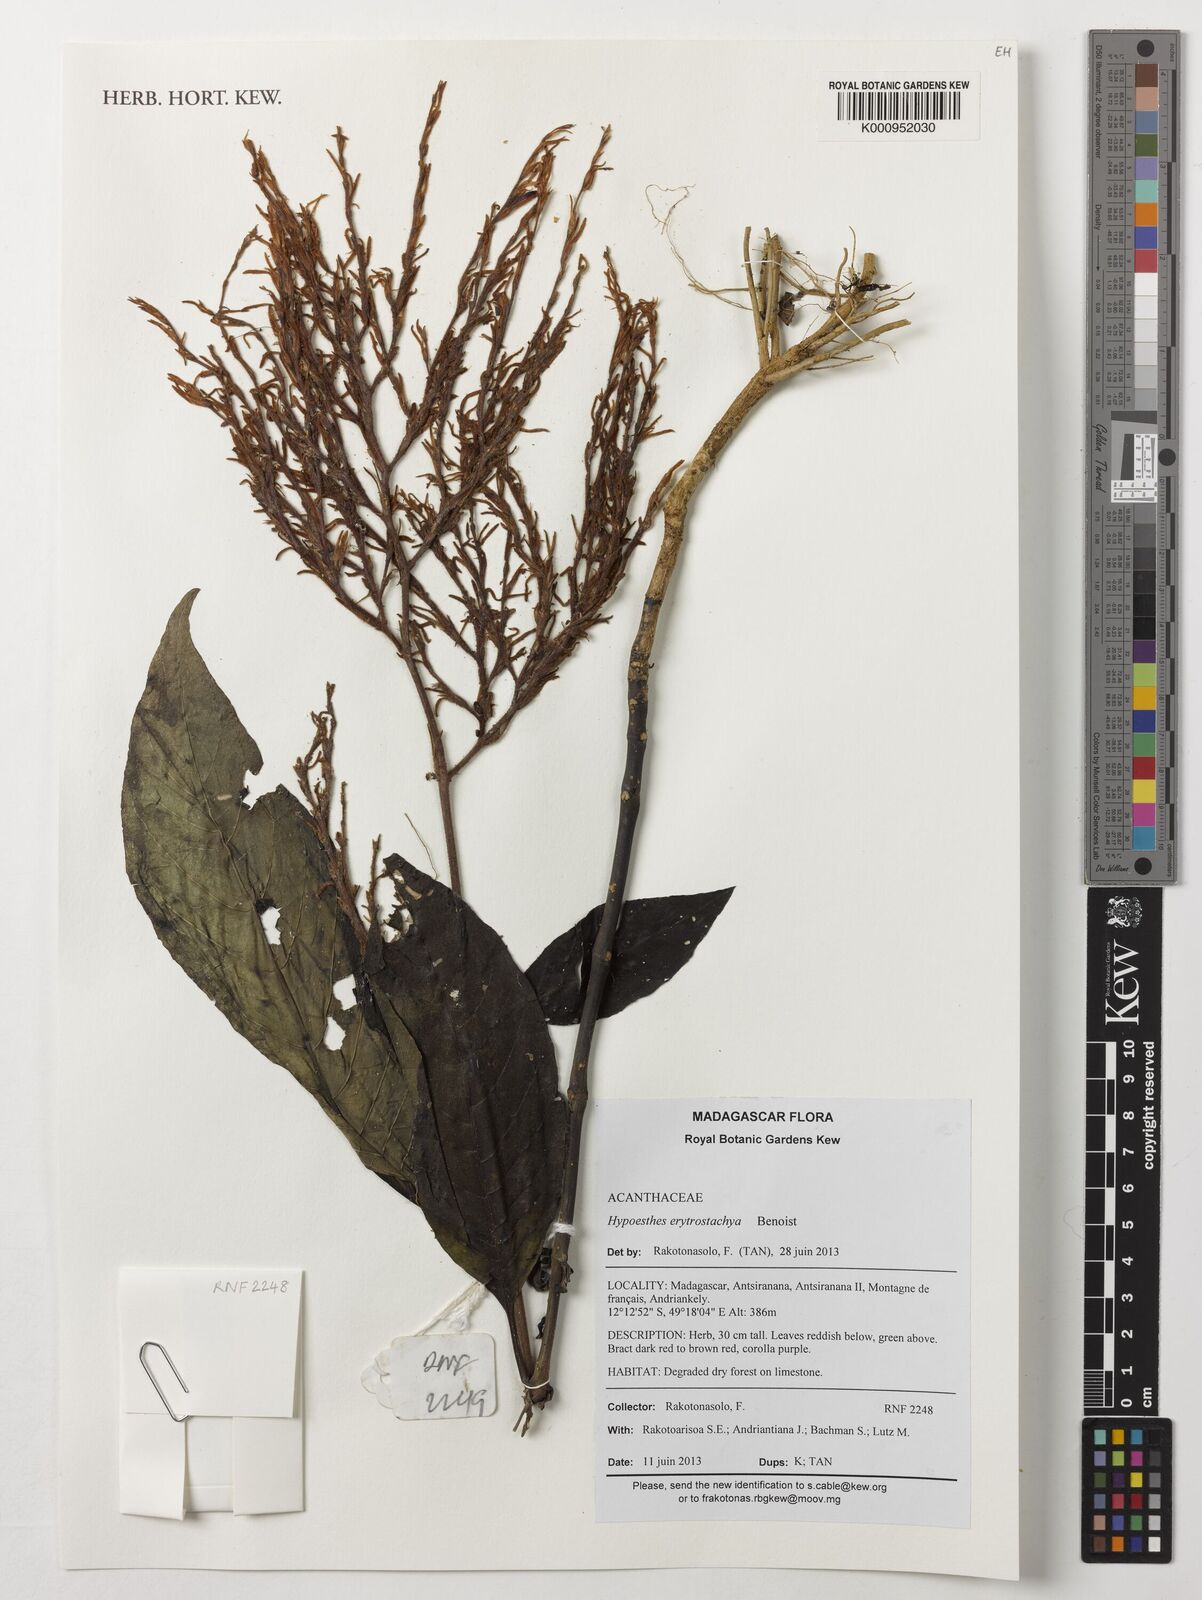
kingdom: Plantae
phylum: Tracheophyta
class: Magnoliopsida
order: Lamiales
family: Acanthaceae
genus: Hypoestes
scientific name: Hypoestes erythrostachya
